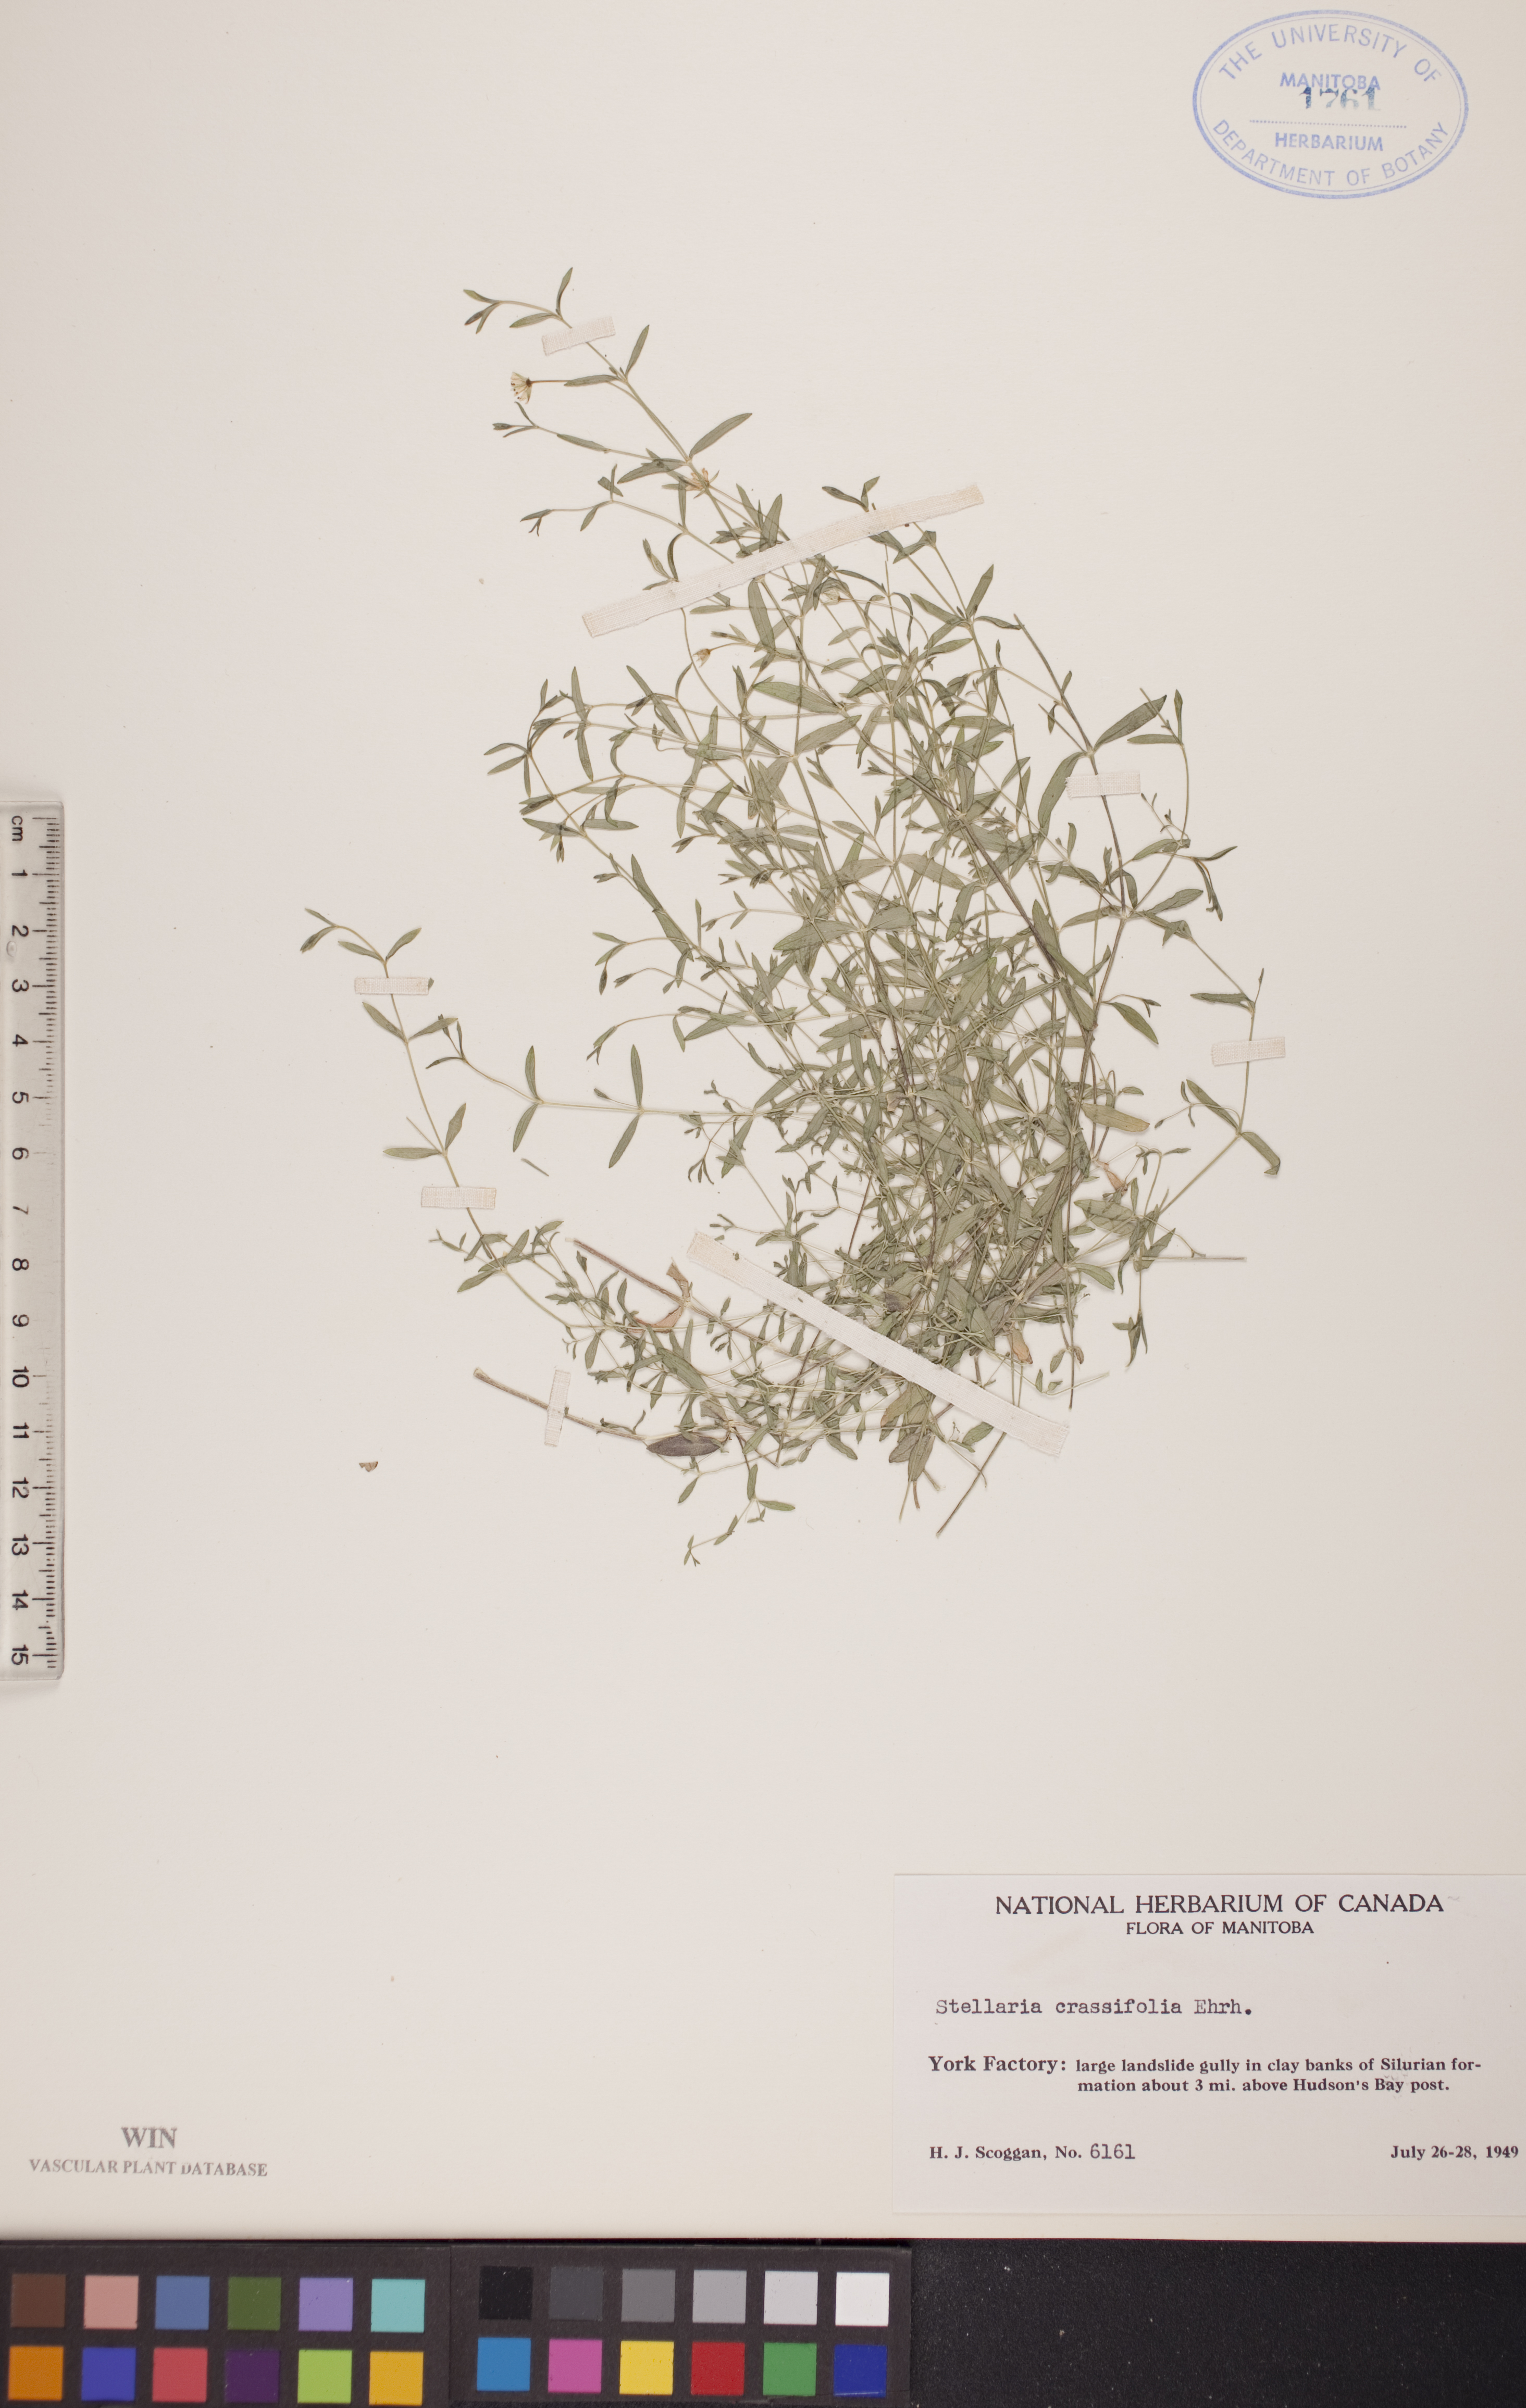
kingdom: Plantae
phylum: Tracheophyta
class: Magnoliopsida
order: Caryophyllales
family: Caryophyllaceae
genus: Stellaria
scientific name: Stellaria crassifolia
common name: Fleshy starwort
